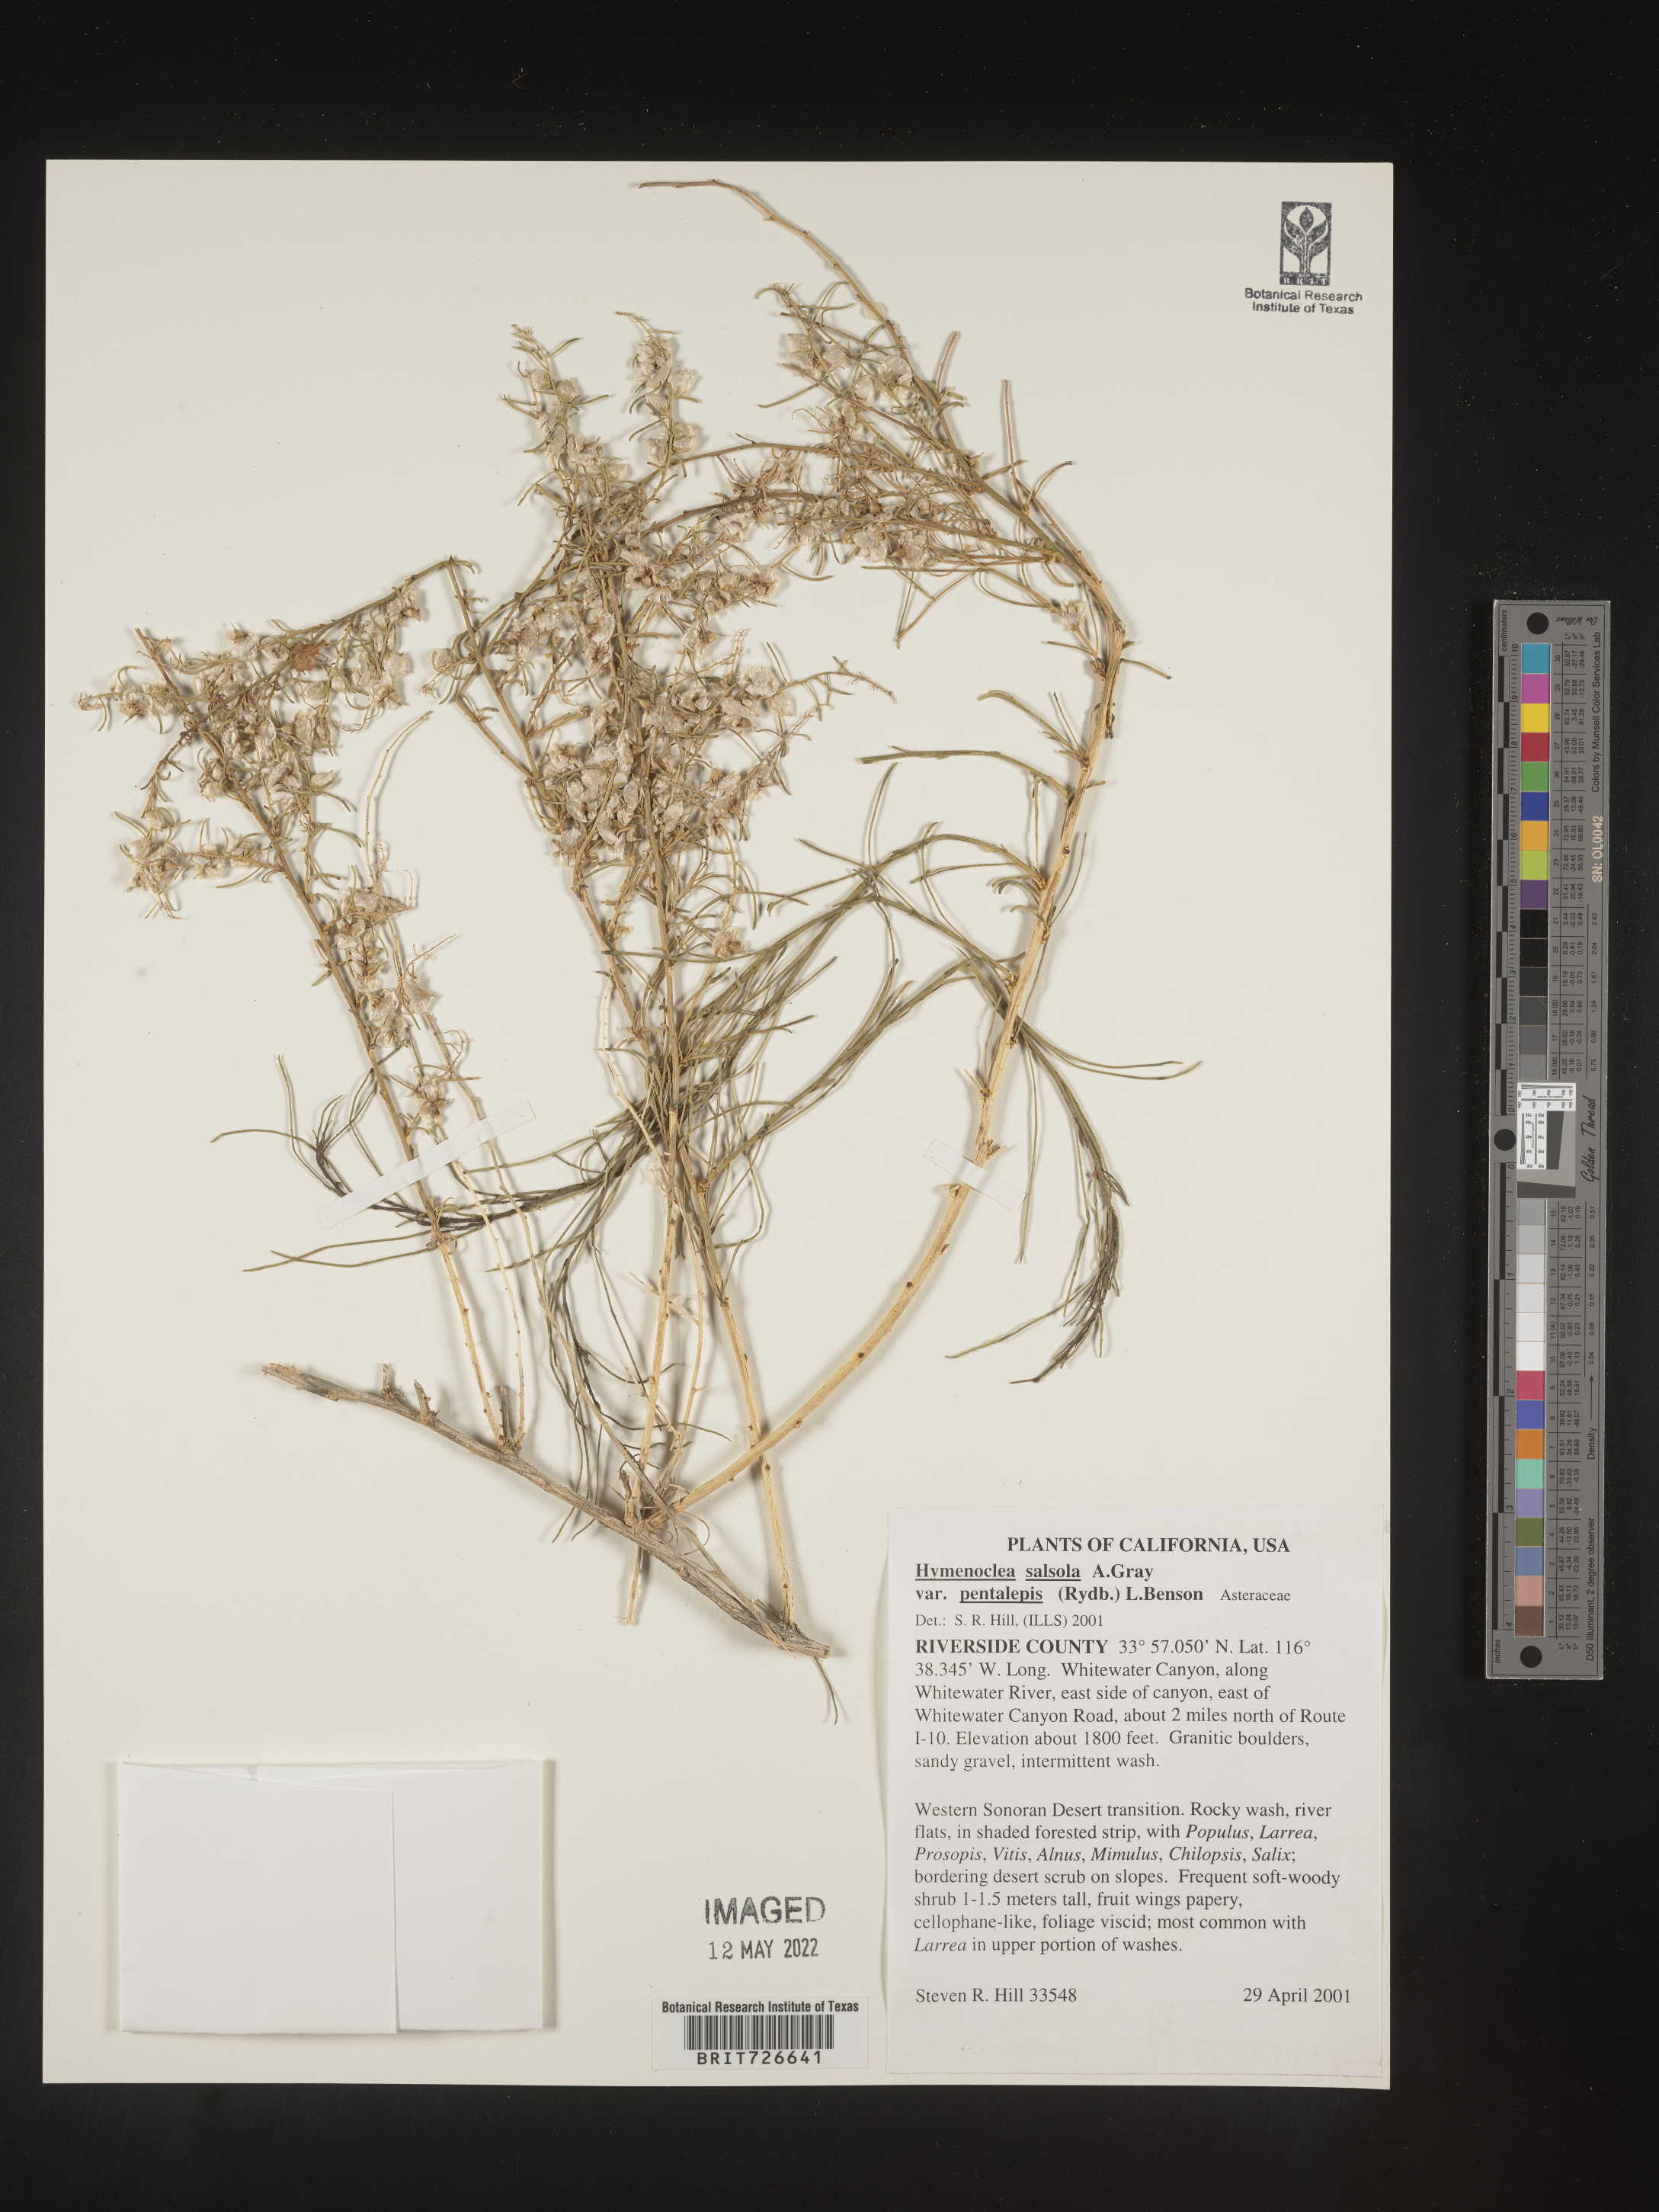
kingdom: Animalia
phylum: Arthropoda
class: Insecta
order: Lepidoptera
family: Sesiidae
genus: Hymenoclea
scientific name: Hymenoclea
